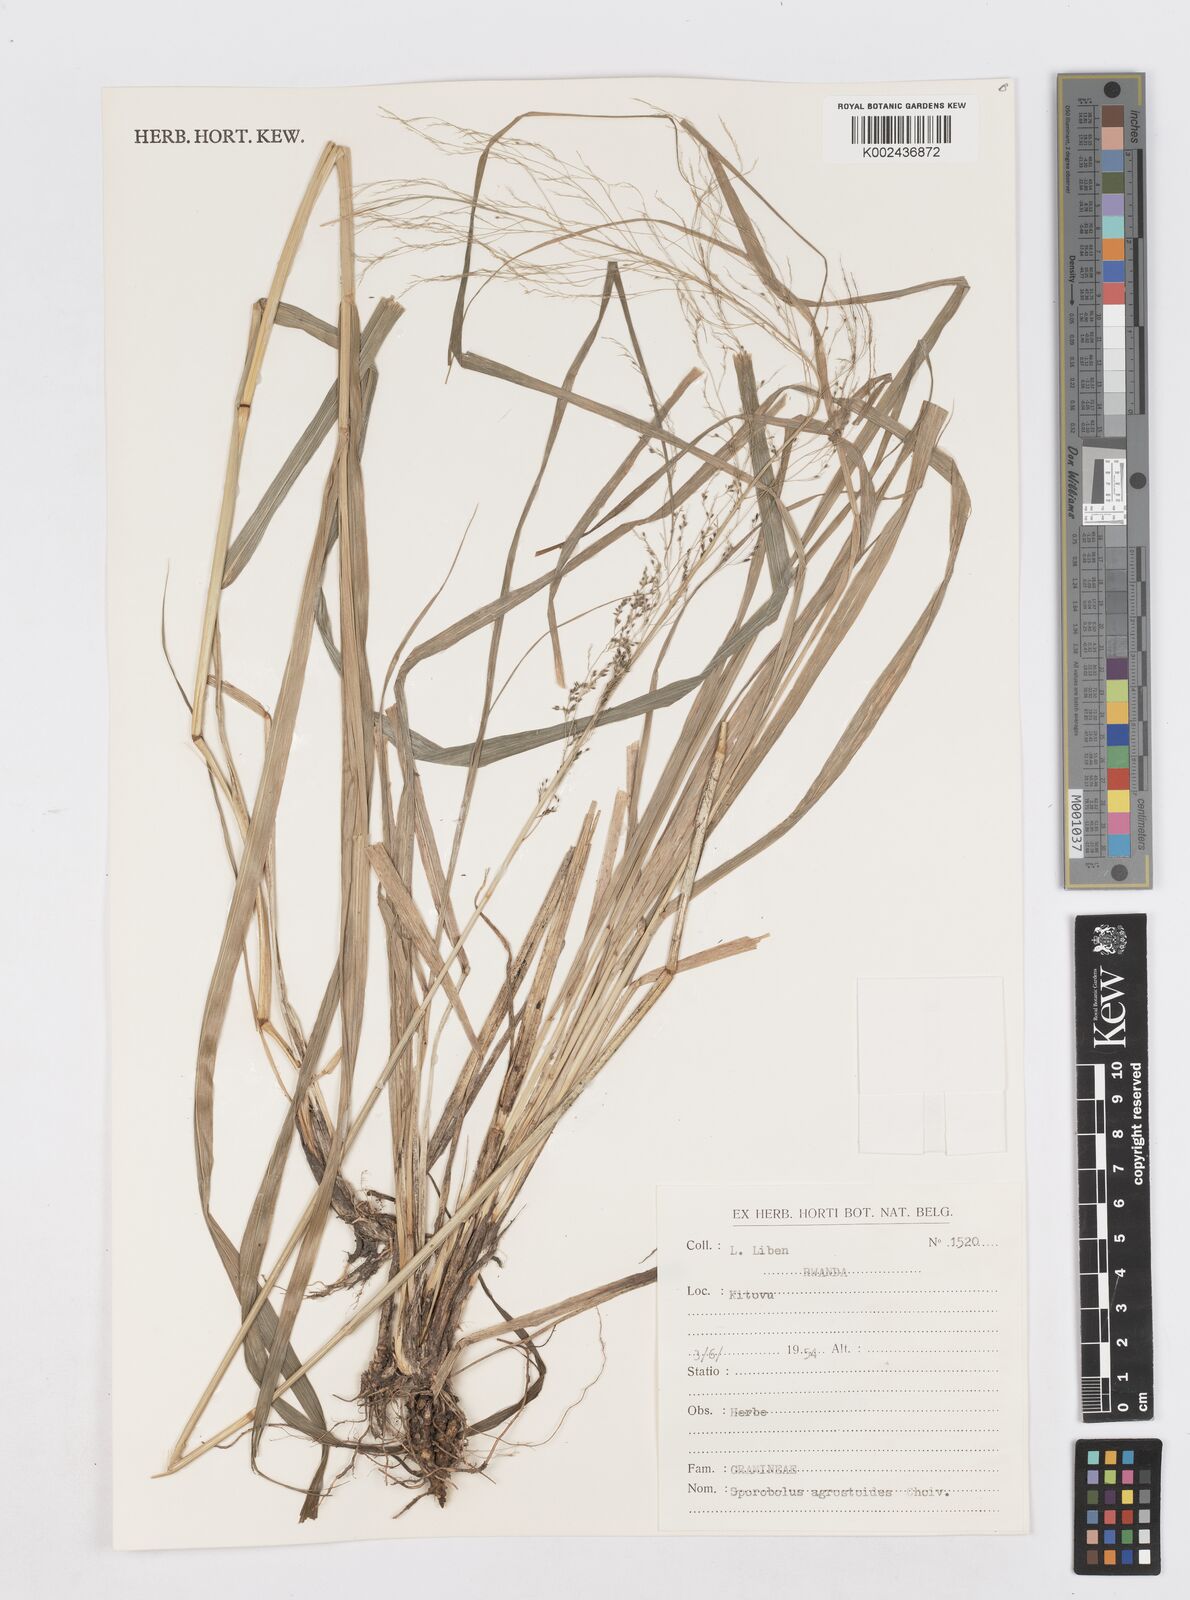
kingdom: Plantae
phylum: Tracheophyta
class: Liliopsida
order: Poales
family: Poaceae
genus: Sporobolus
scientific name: Sporobolus agrostoides
